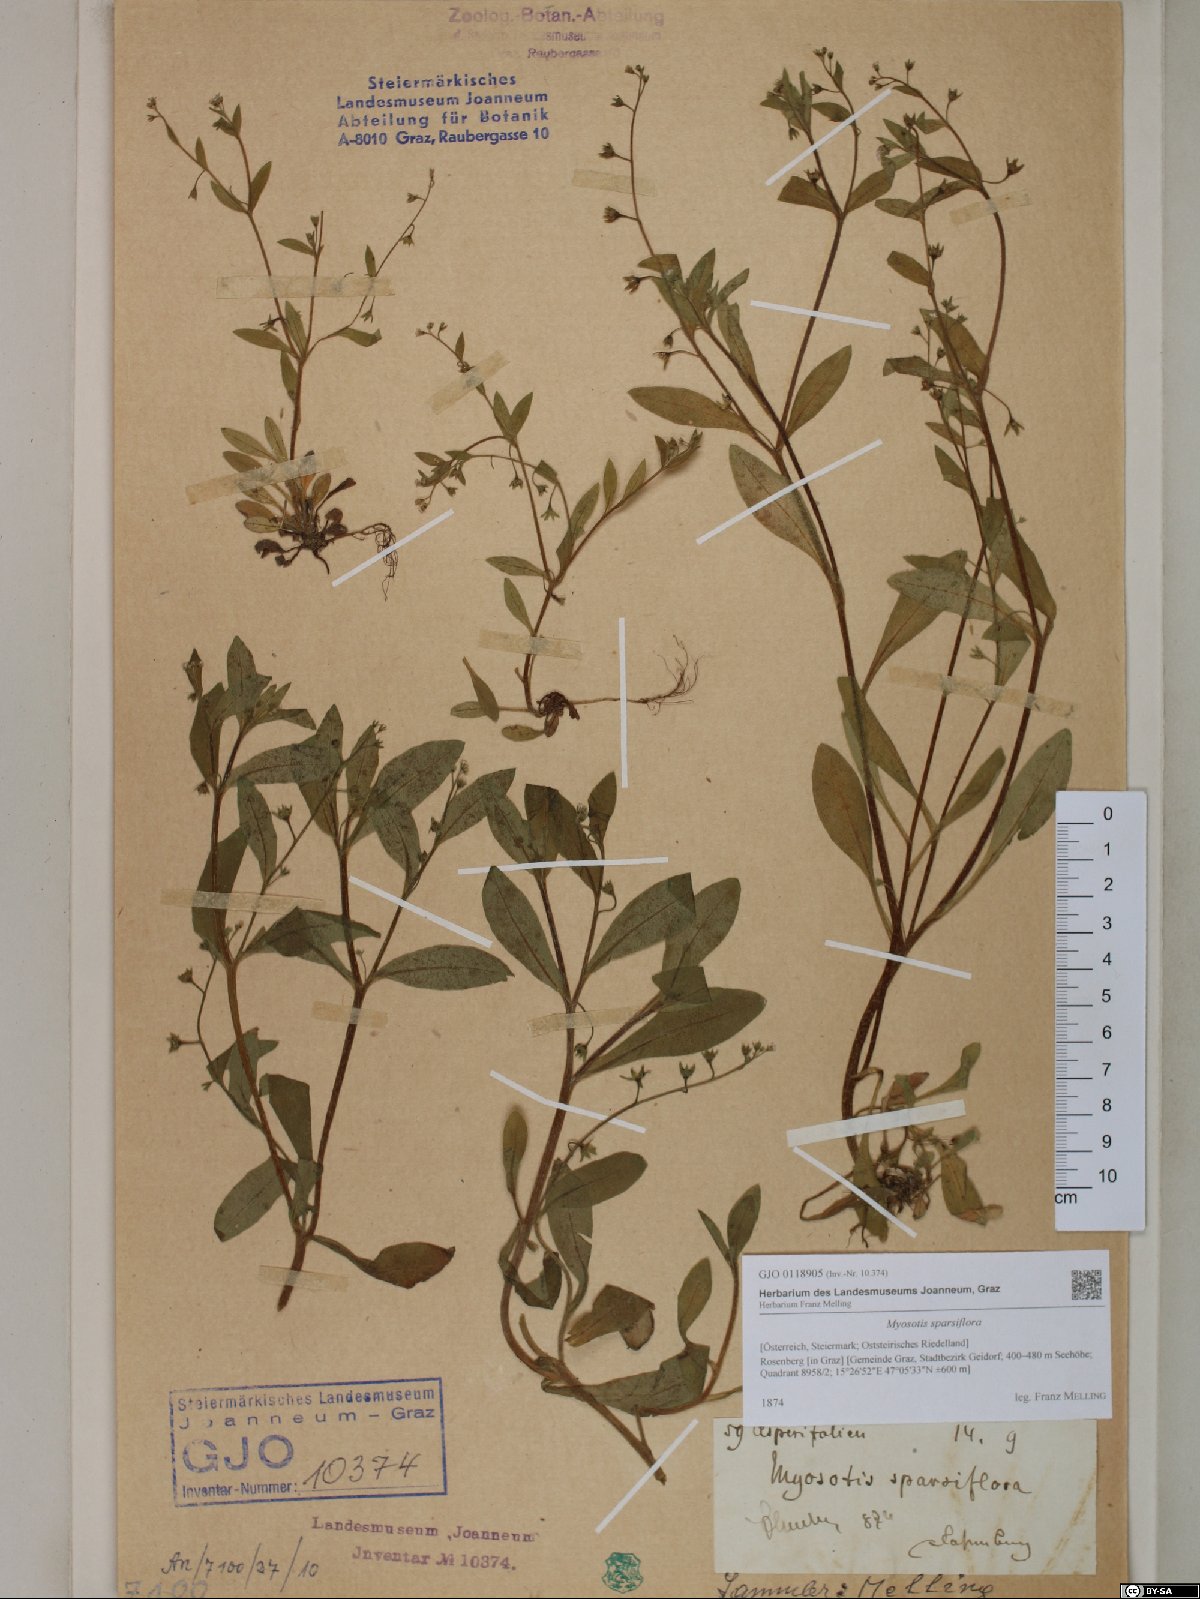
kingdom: Plantae
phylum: Tracheophyta
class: Magnoliopsida
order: Boraginales
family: Boraginaceae
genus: Myosotis
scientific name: Myosotis sparsiflora
